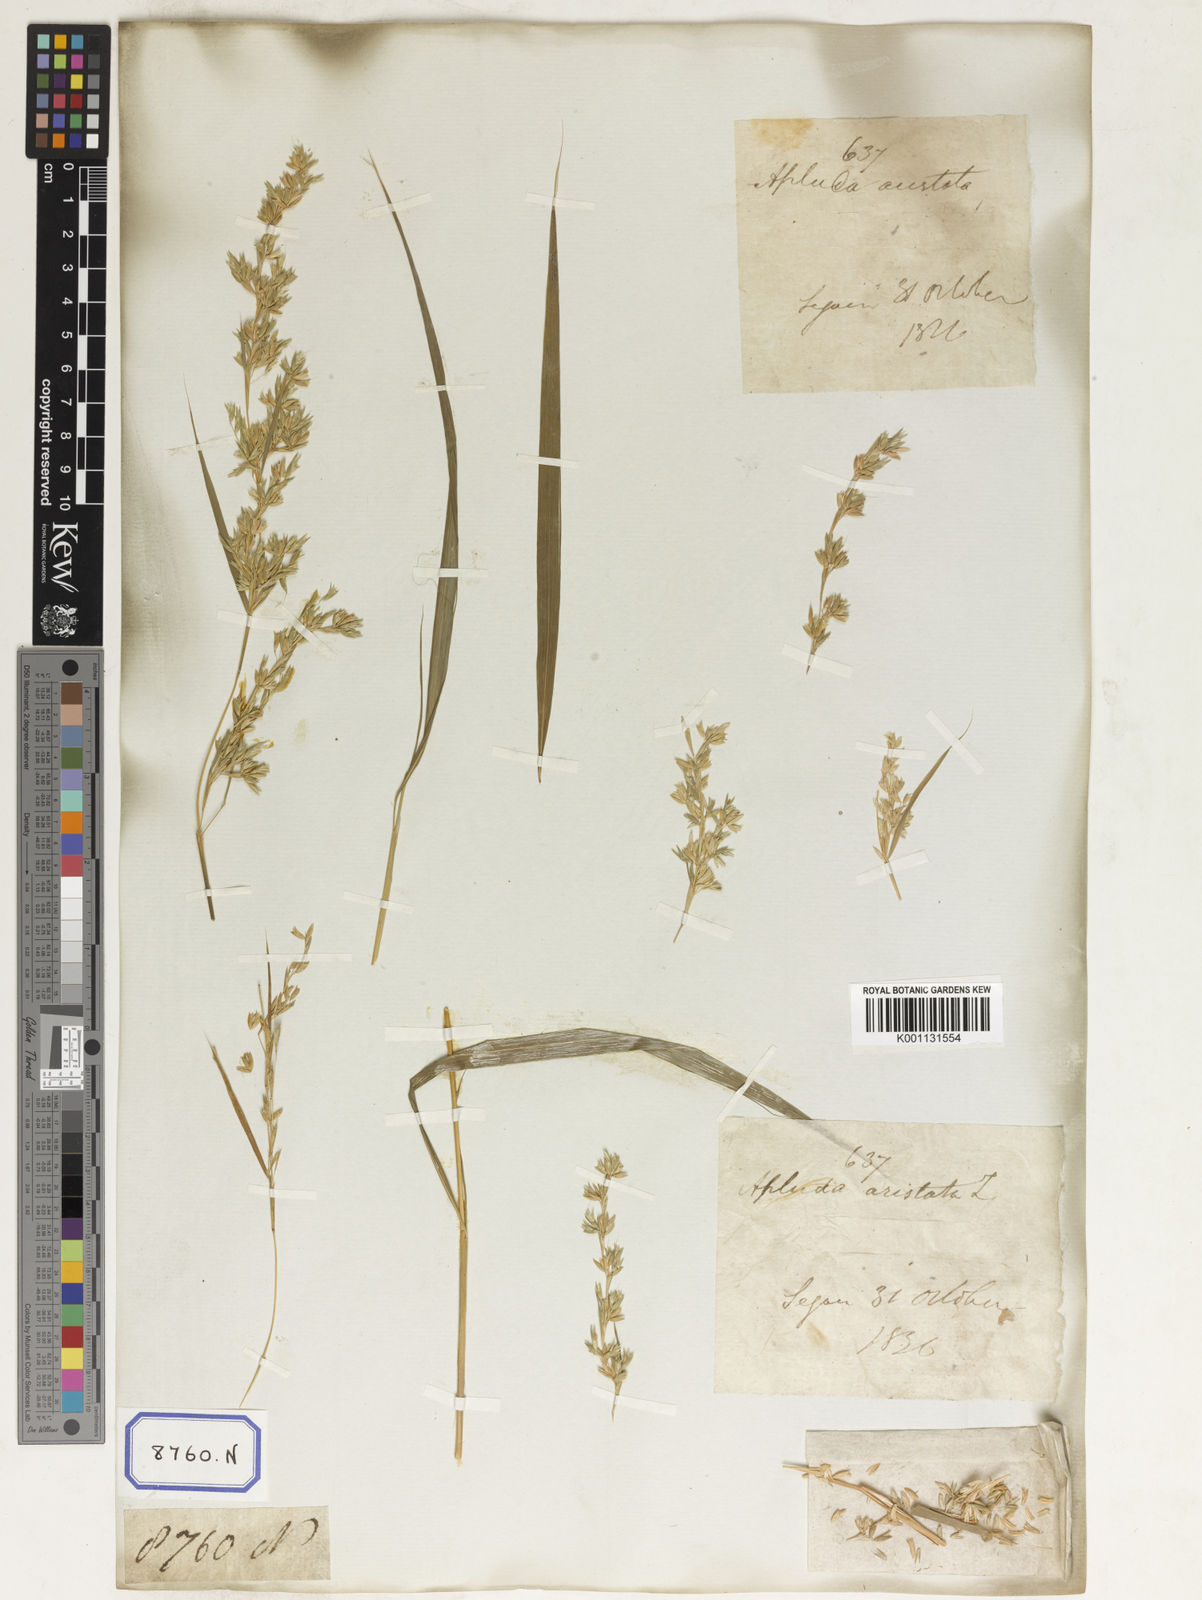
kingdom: Plantae
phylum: Tracheophyta
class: Liliopsida
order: Poales
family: Poaceae
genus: Apluda
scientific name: Apluda
